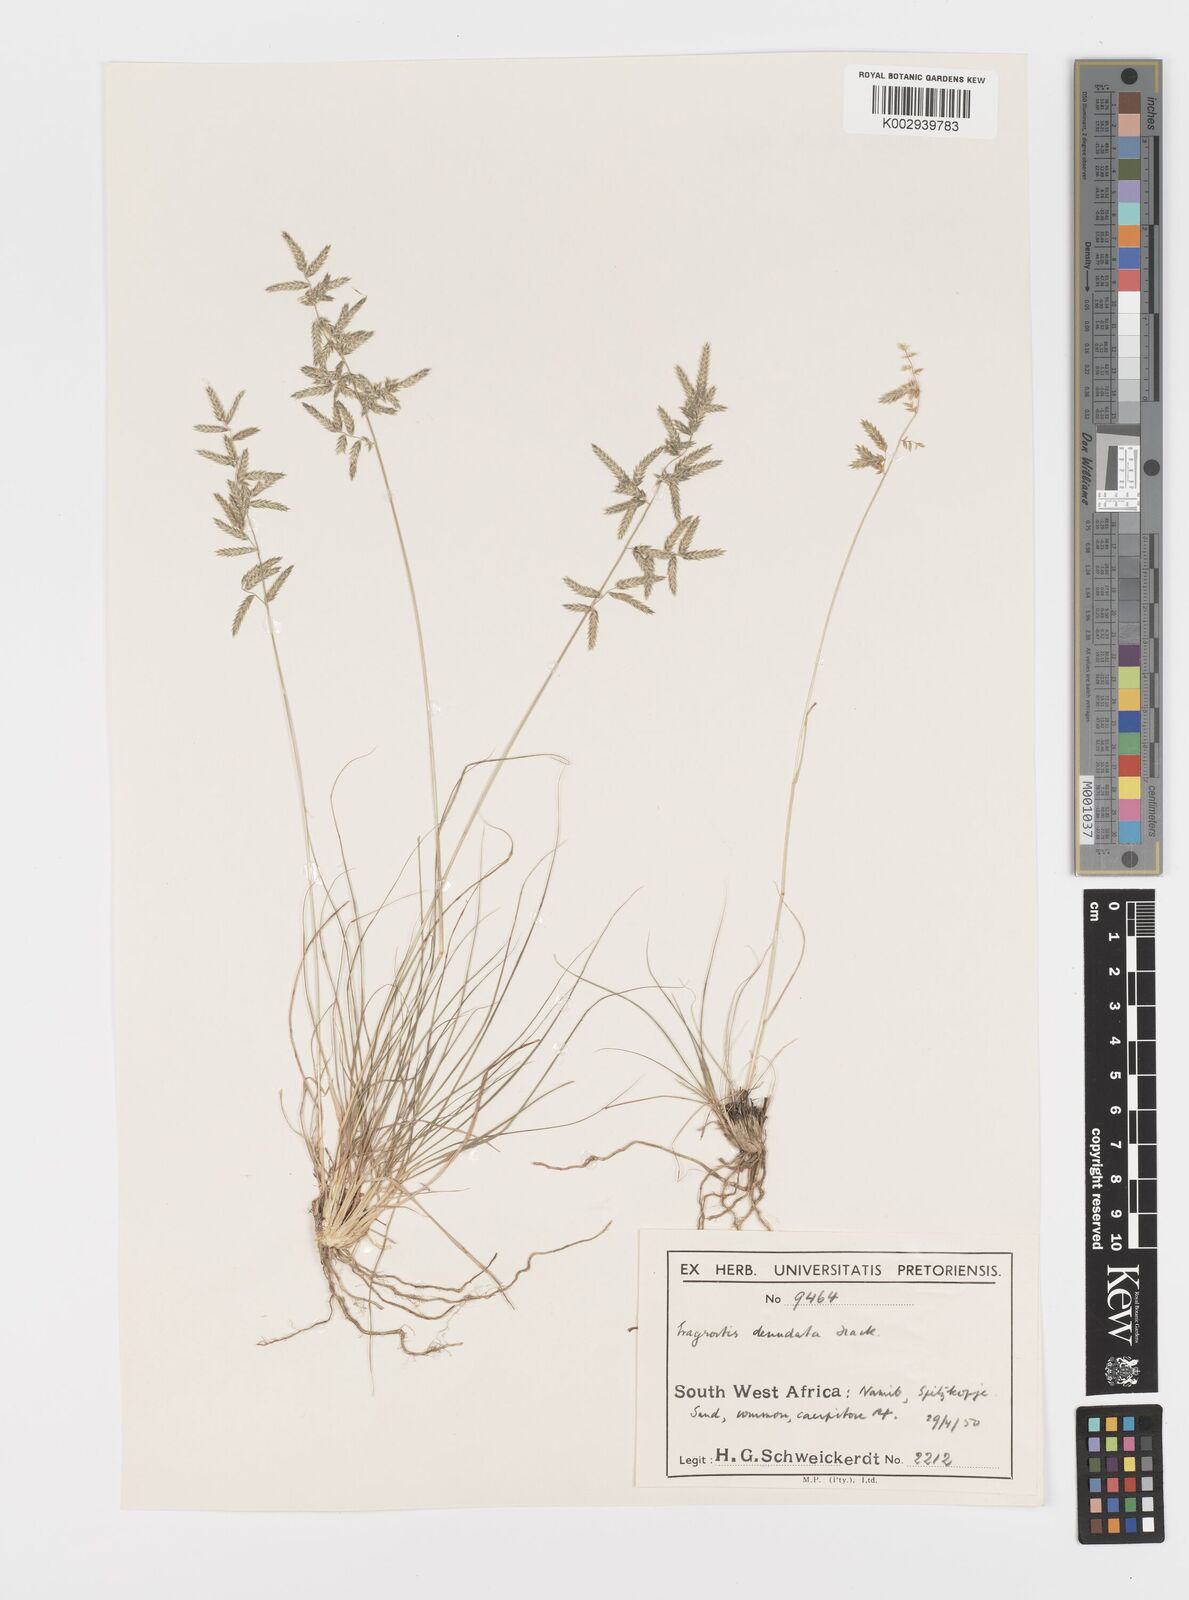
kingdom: Plantae
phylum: Tracheophyta
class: Liliopsida
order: Poales
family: Poaceae
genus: Eragrostis
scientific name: Eragrostis nindensis
